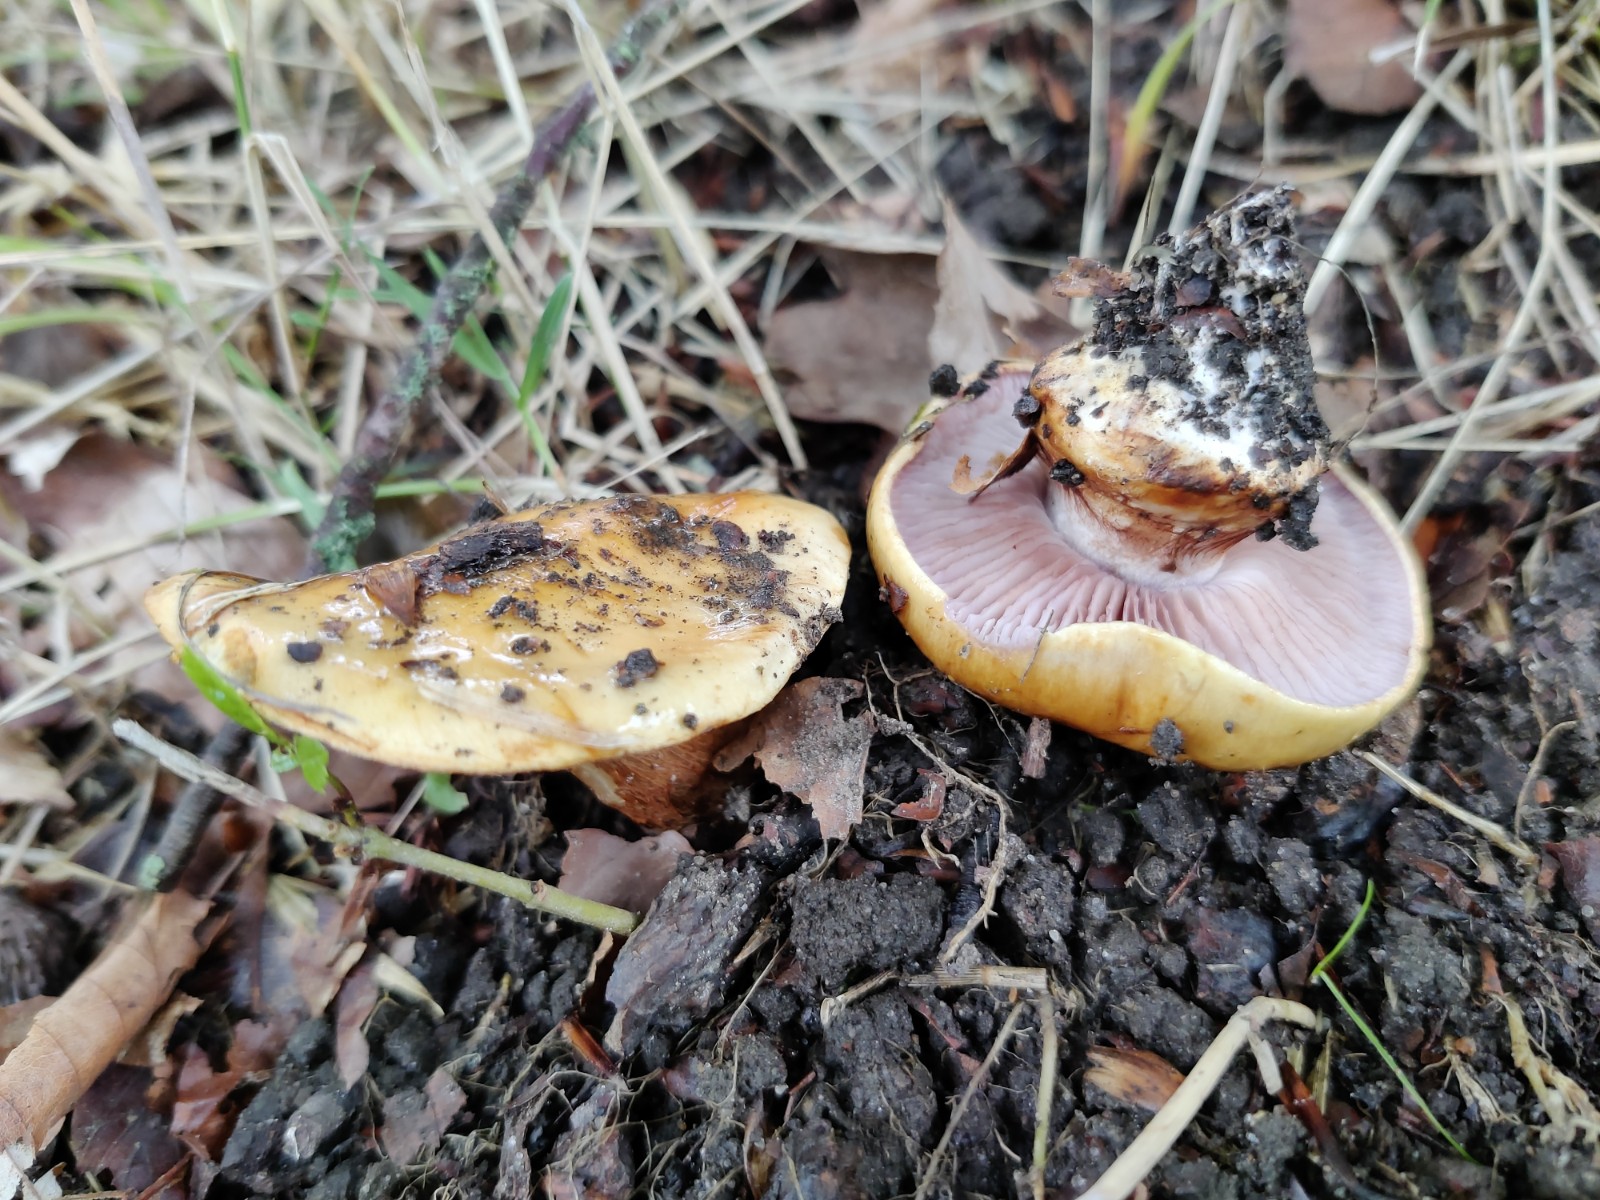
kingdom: Fungi
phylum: Basidiomycota
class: Agaricomycetes
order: Agaricales
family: Cortinariaceae
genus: Calonarius
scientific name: Calonarius cisticola
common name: cistus-slørhat
